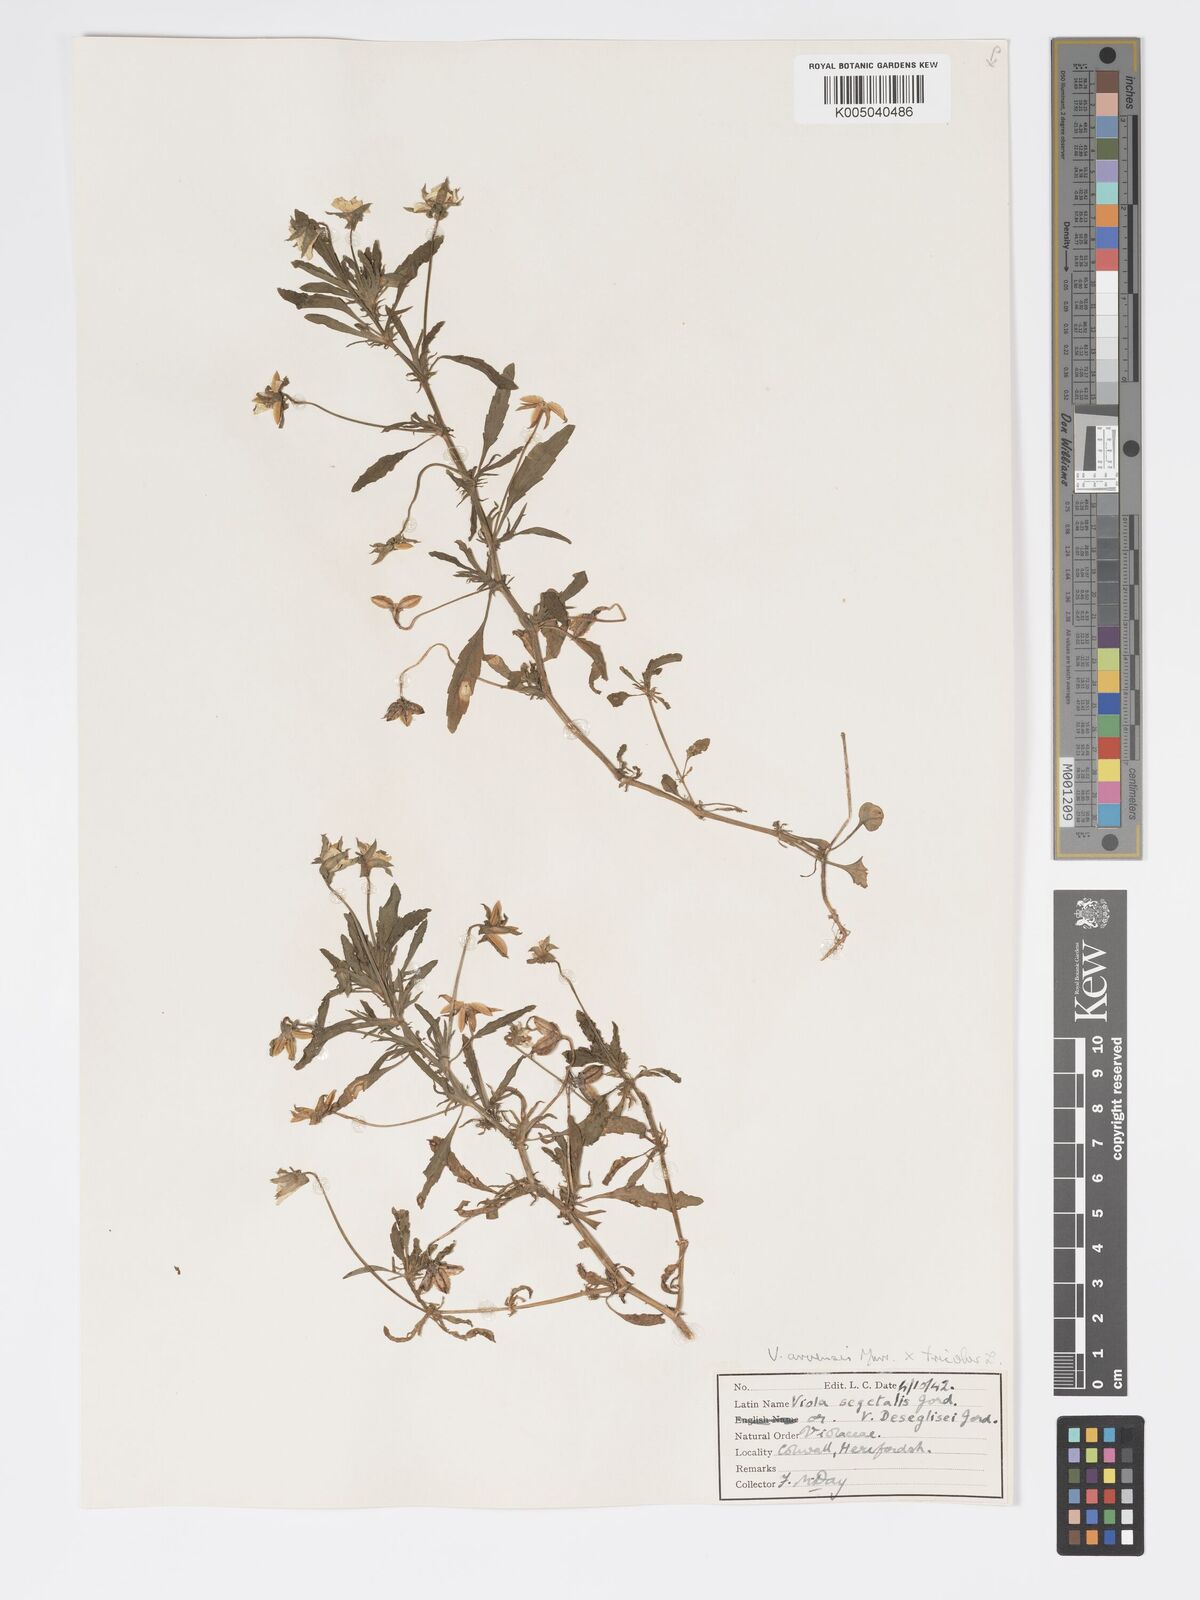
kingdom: Plantae
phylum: Tracheophyta
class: Magnoliopsida
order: Malpighiales
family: Violaceae
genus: Viola
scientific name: Viola arvensis
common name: Field pansy
